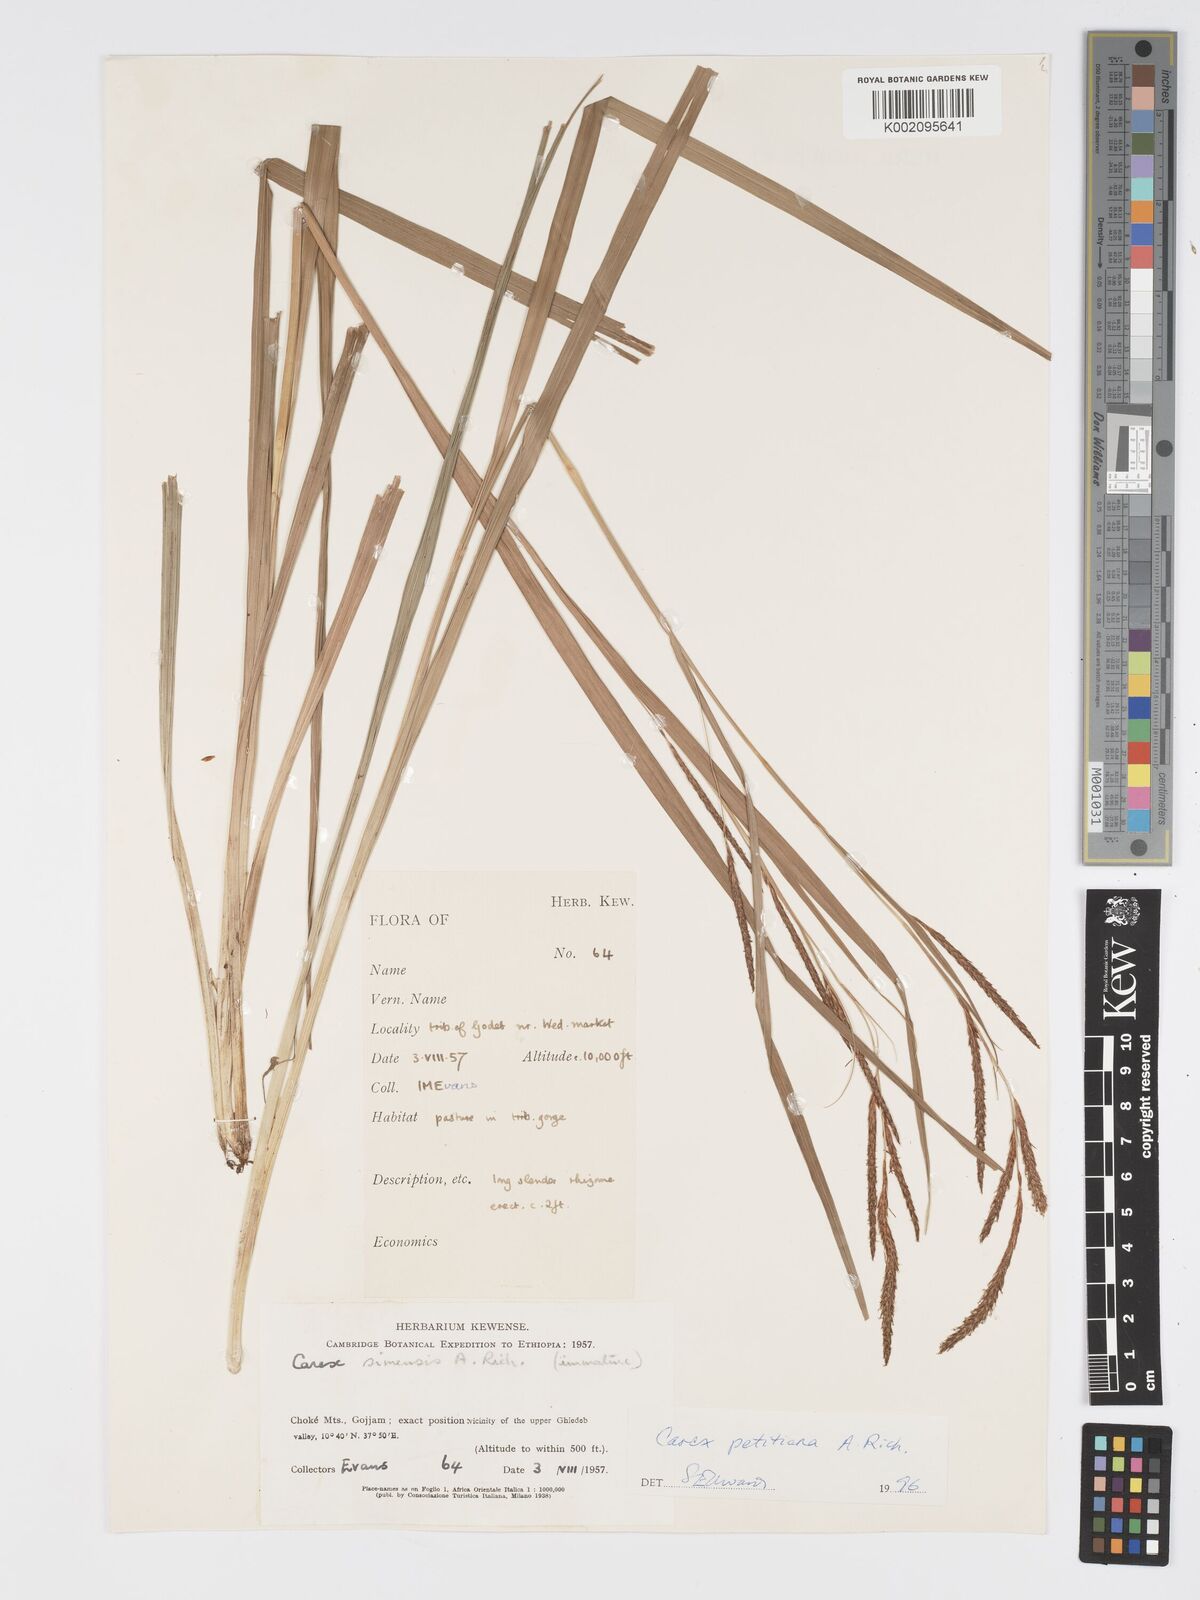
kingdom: Plantae
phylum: Tracheophyta
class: Liliopsida
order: Poales
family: Cyperaceae
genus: Carex
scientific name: Carex petitiana
